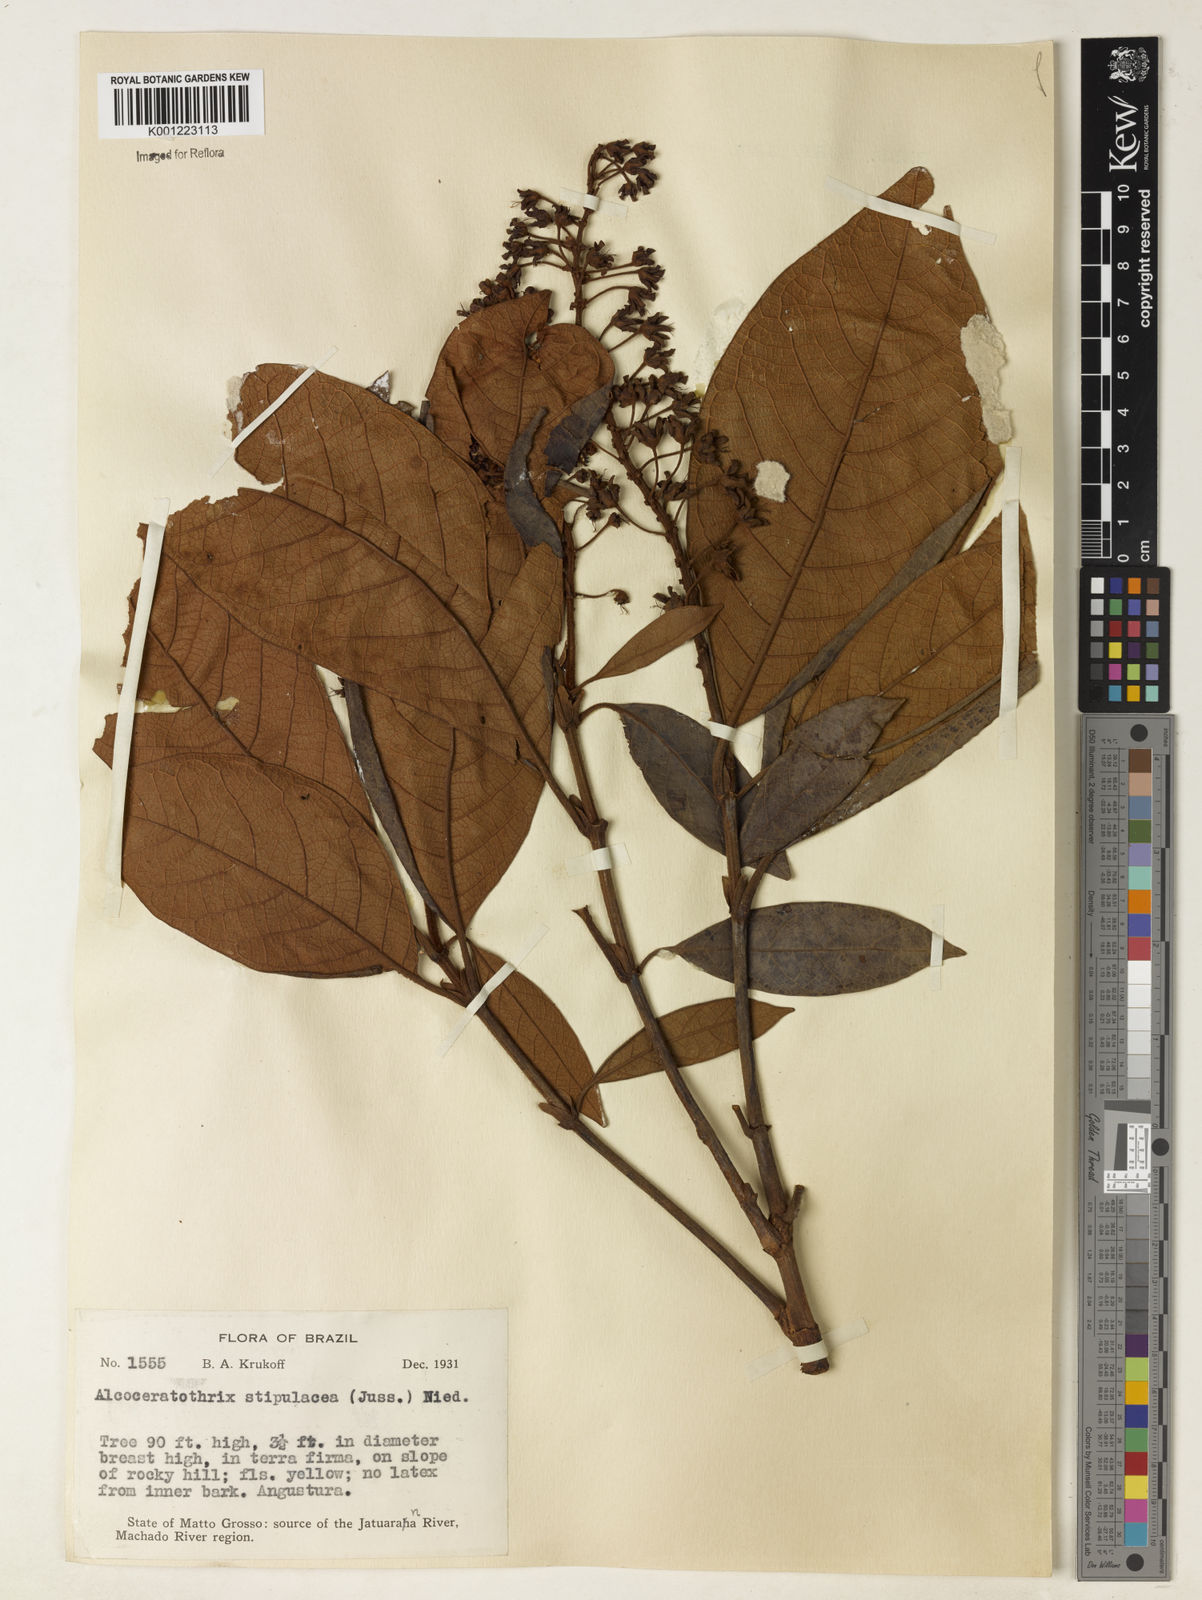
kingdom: Plantae
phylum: Tracheophyta
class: Magnoliopsida
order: Malpighiales
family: Malpighiaceae
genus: Byrsonima
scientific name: Byrsonima stipulacea
